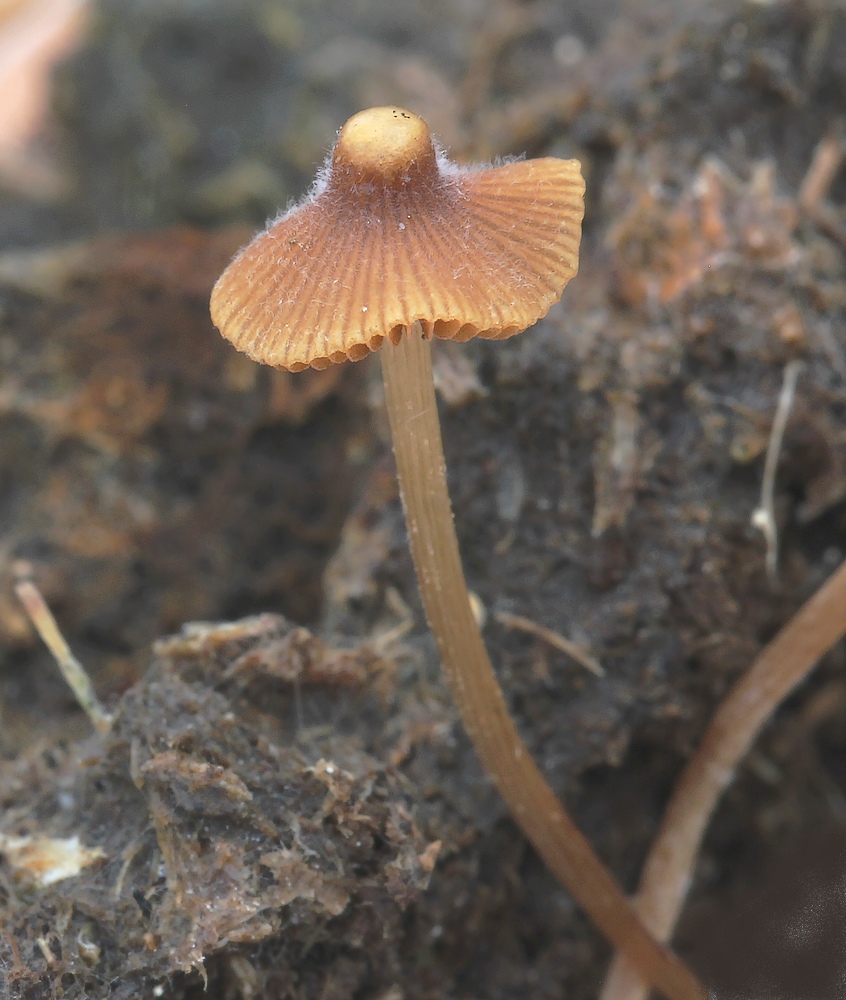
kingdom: Fungi
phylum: Basidiomycota
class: Agaricomycetes
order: Agaricales
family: Bolbitiaceae
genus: Conocybe
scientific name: Conocybe
